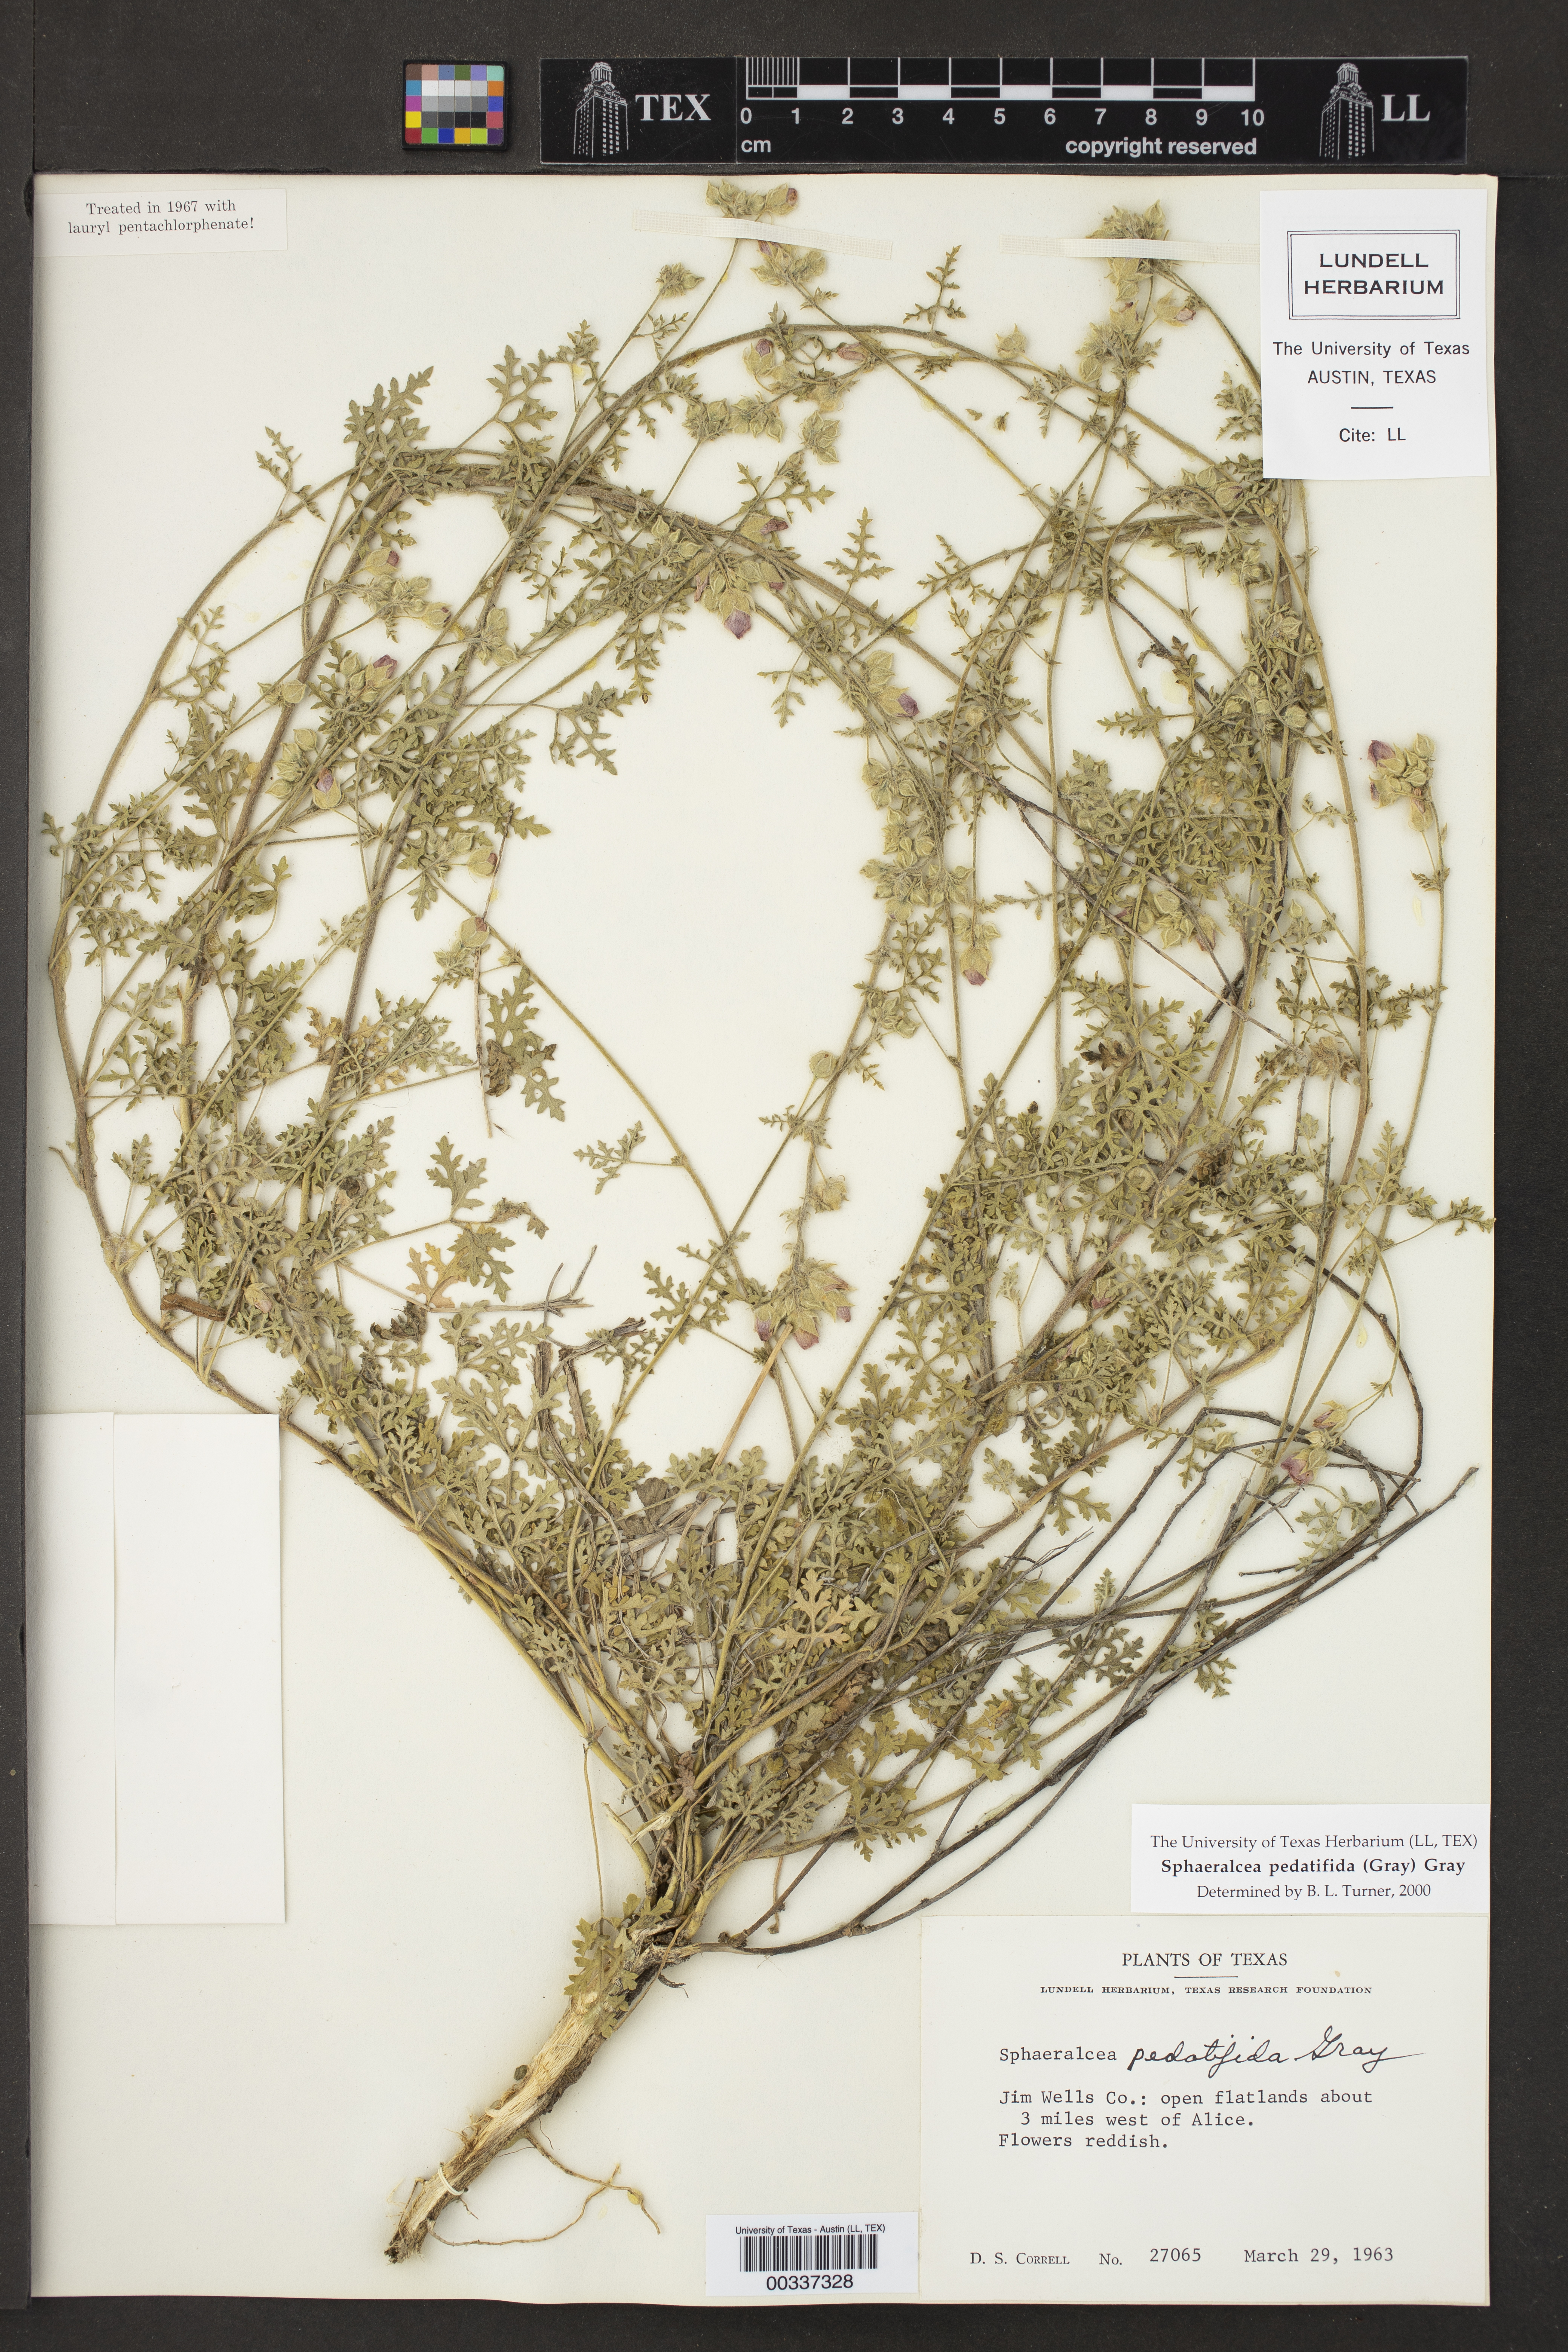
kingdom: Plantae
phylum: Tracheophyta
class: Magnoliopsida
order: Malvales
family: Malvaceae
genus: Sphaeralcea
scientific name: Sphaeralcea pedatifida
